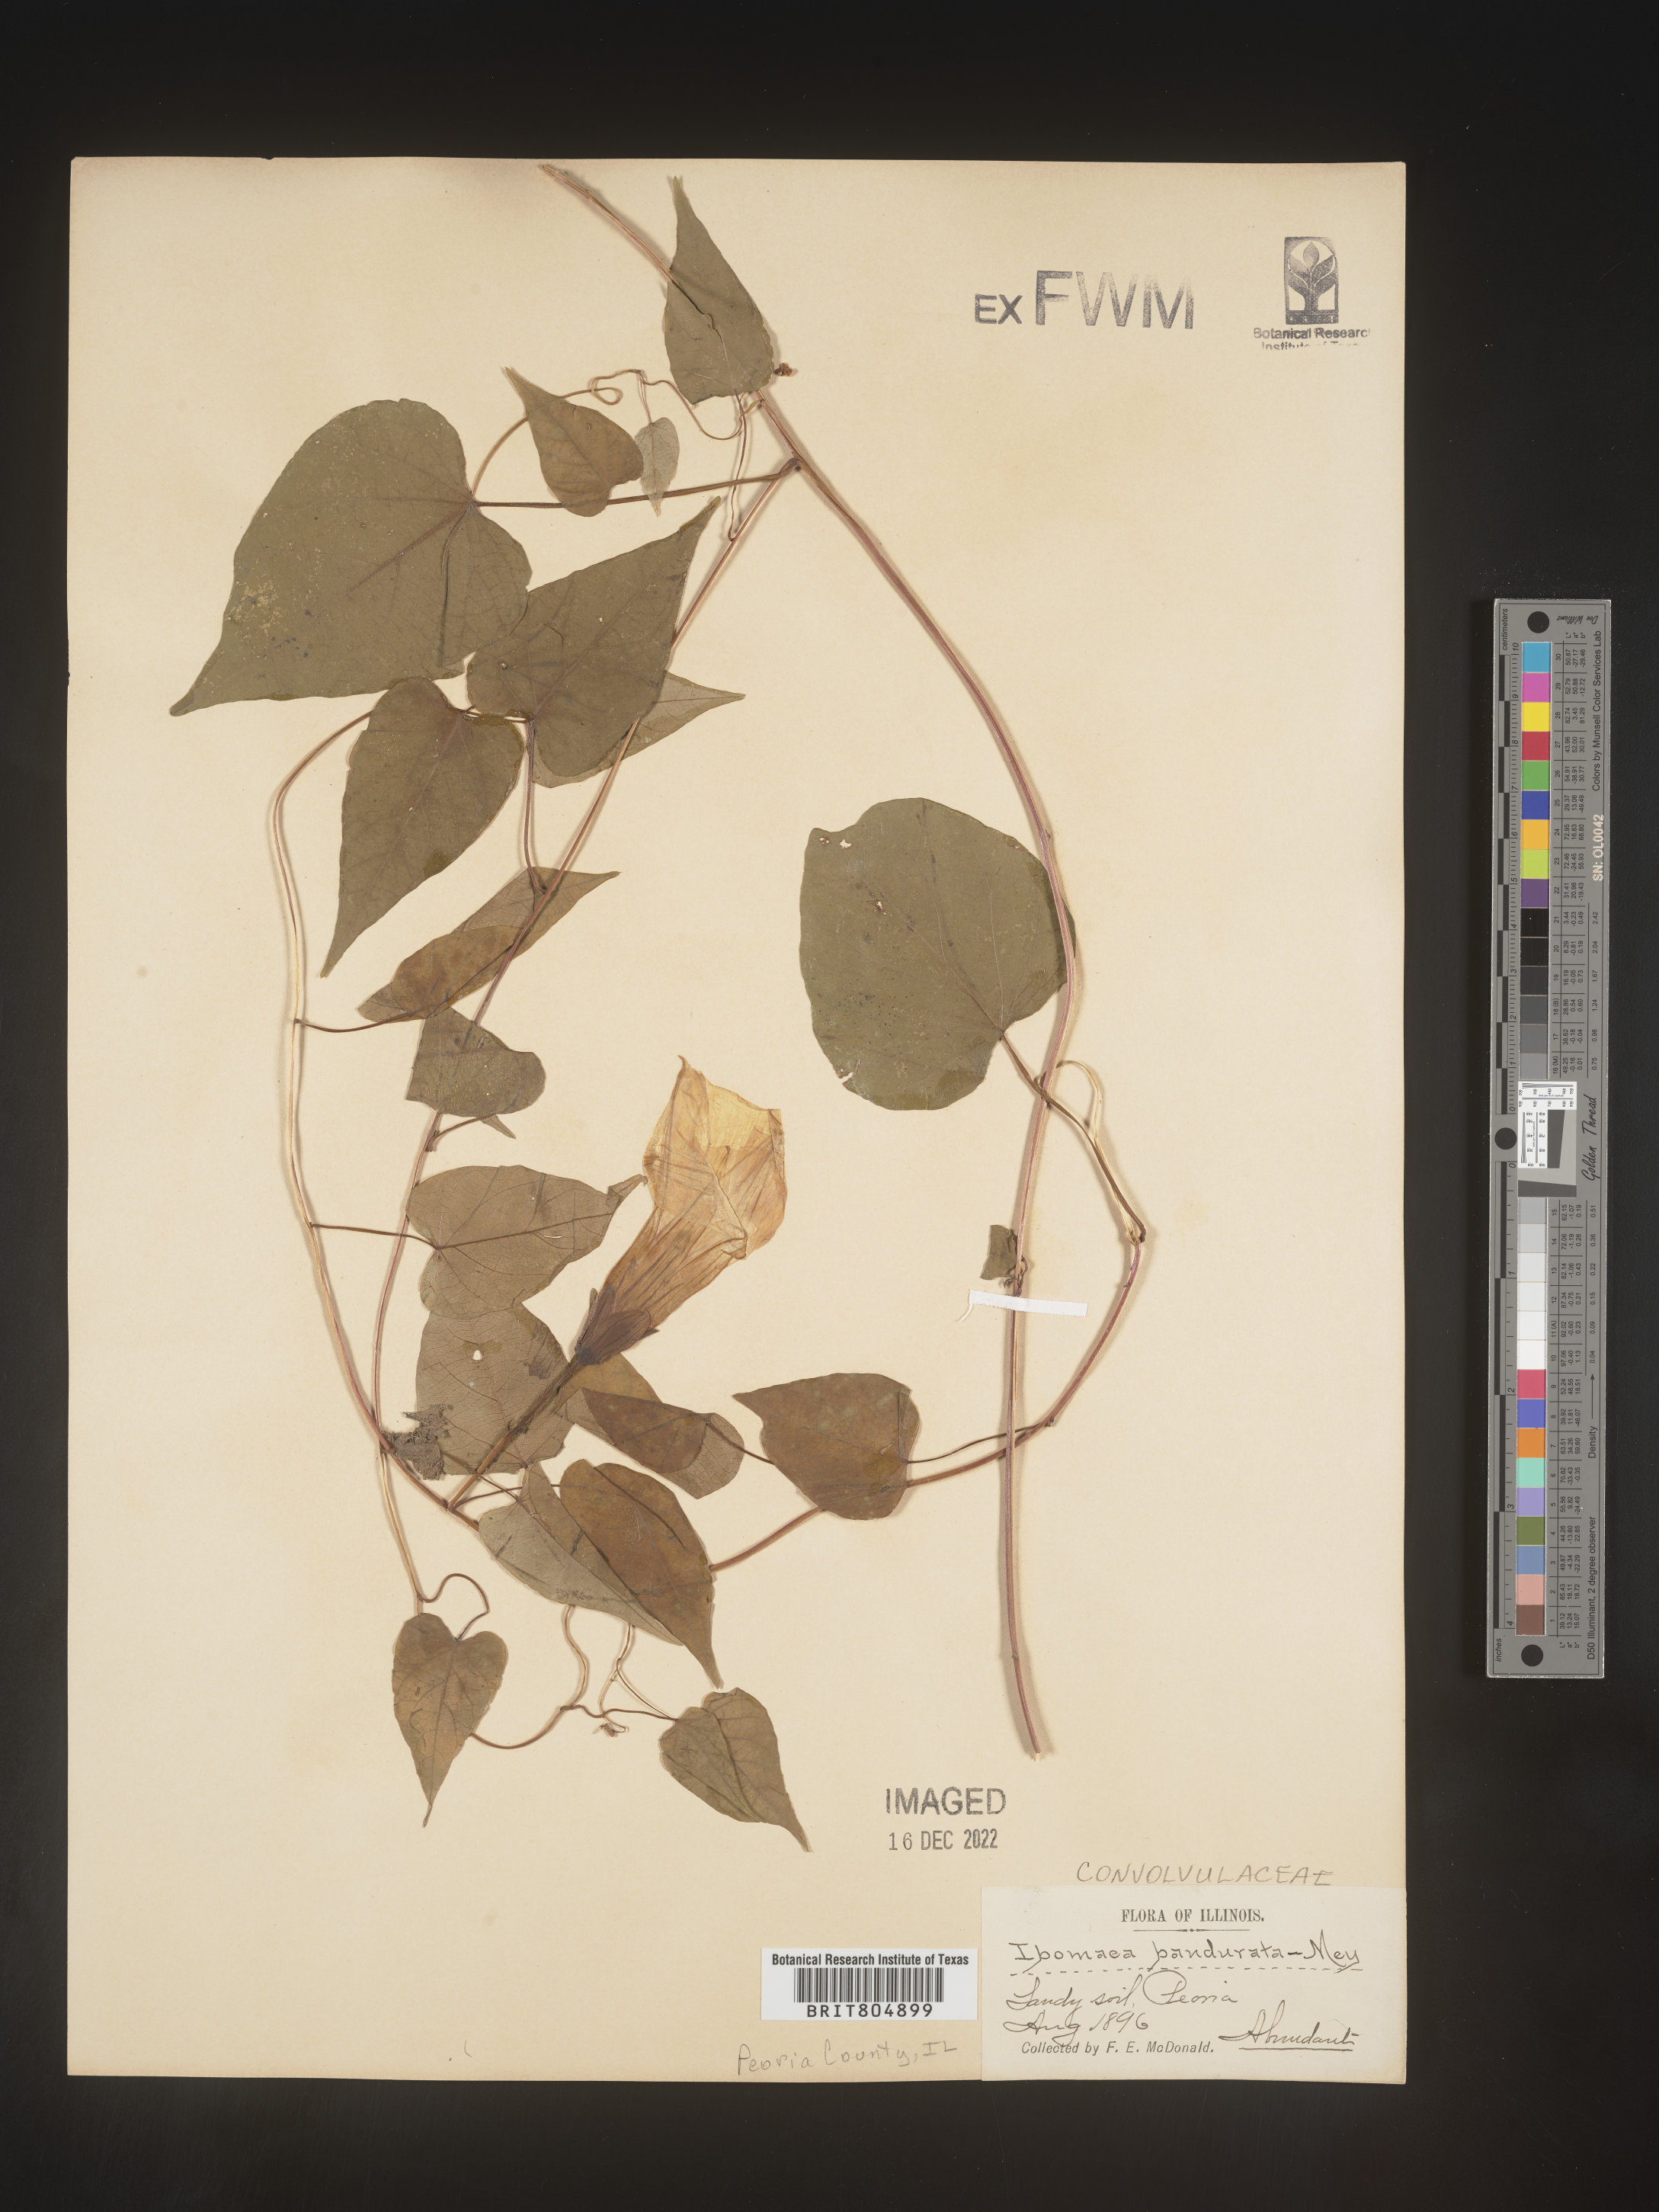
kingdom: Plantae
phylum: Tracheophyta
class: Magnoliopsida
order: Solanales
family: Convolvulaceae
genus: Ipomoea
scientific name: Ipomoea pandurata
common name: Man-of-the-earth
